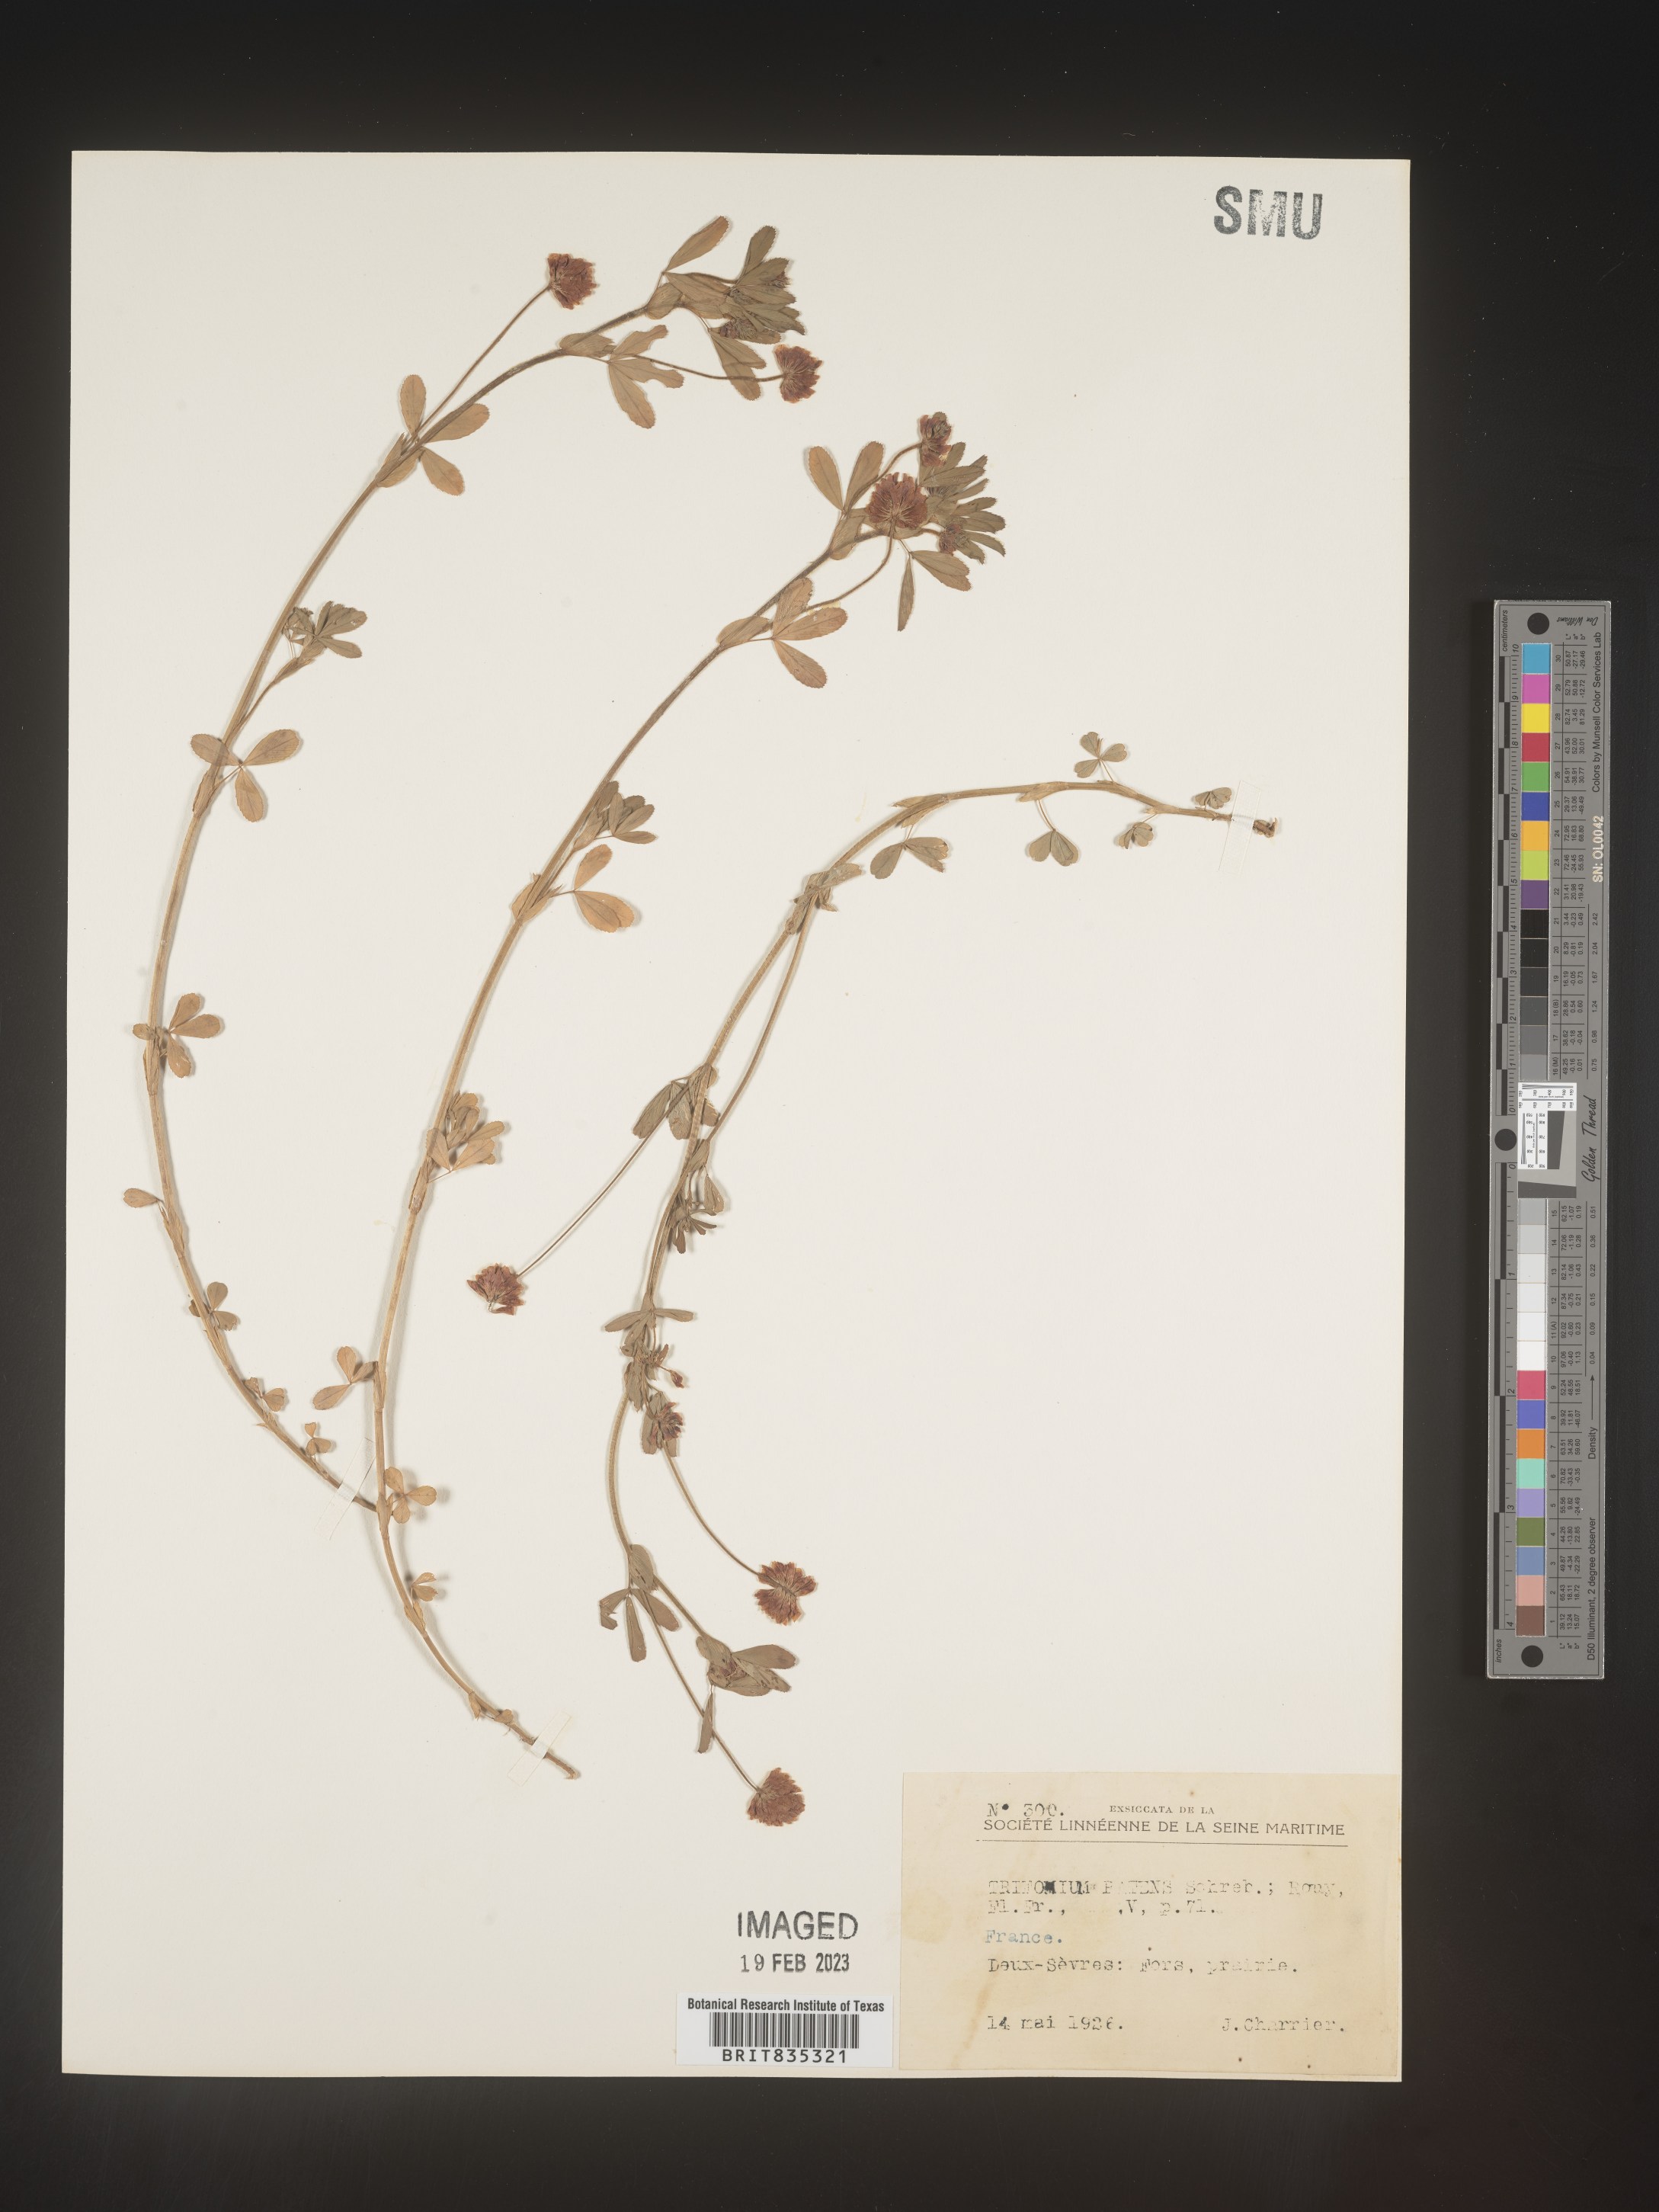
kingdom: Plantae
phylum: Tracheophyta
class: Magnoliopsida
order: Fabales
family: Fabaceae
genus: Trifolium
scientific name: Trifolium
